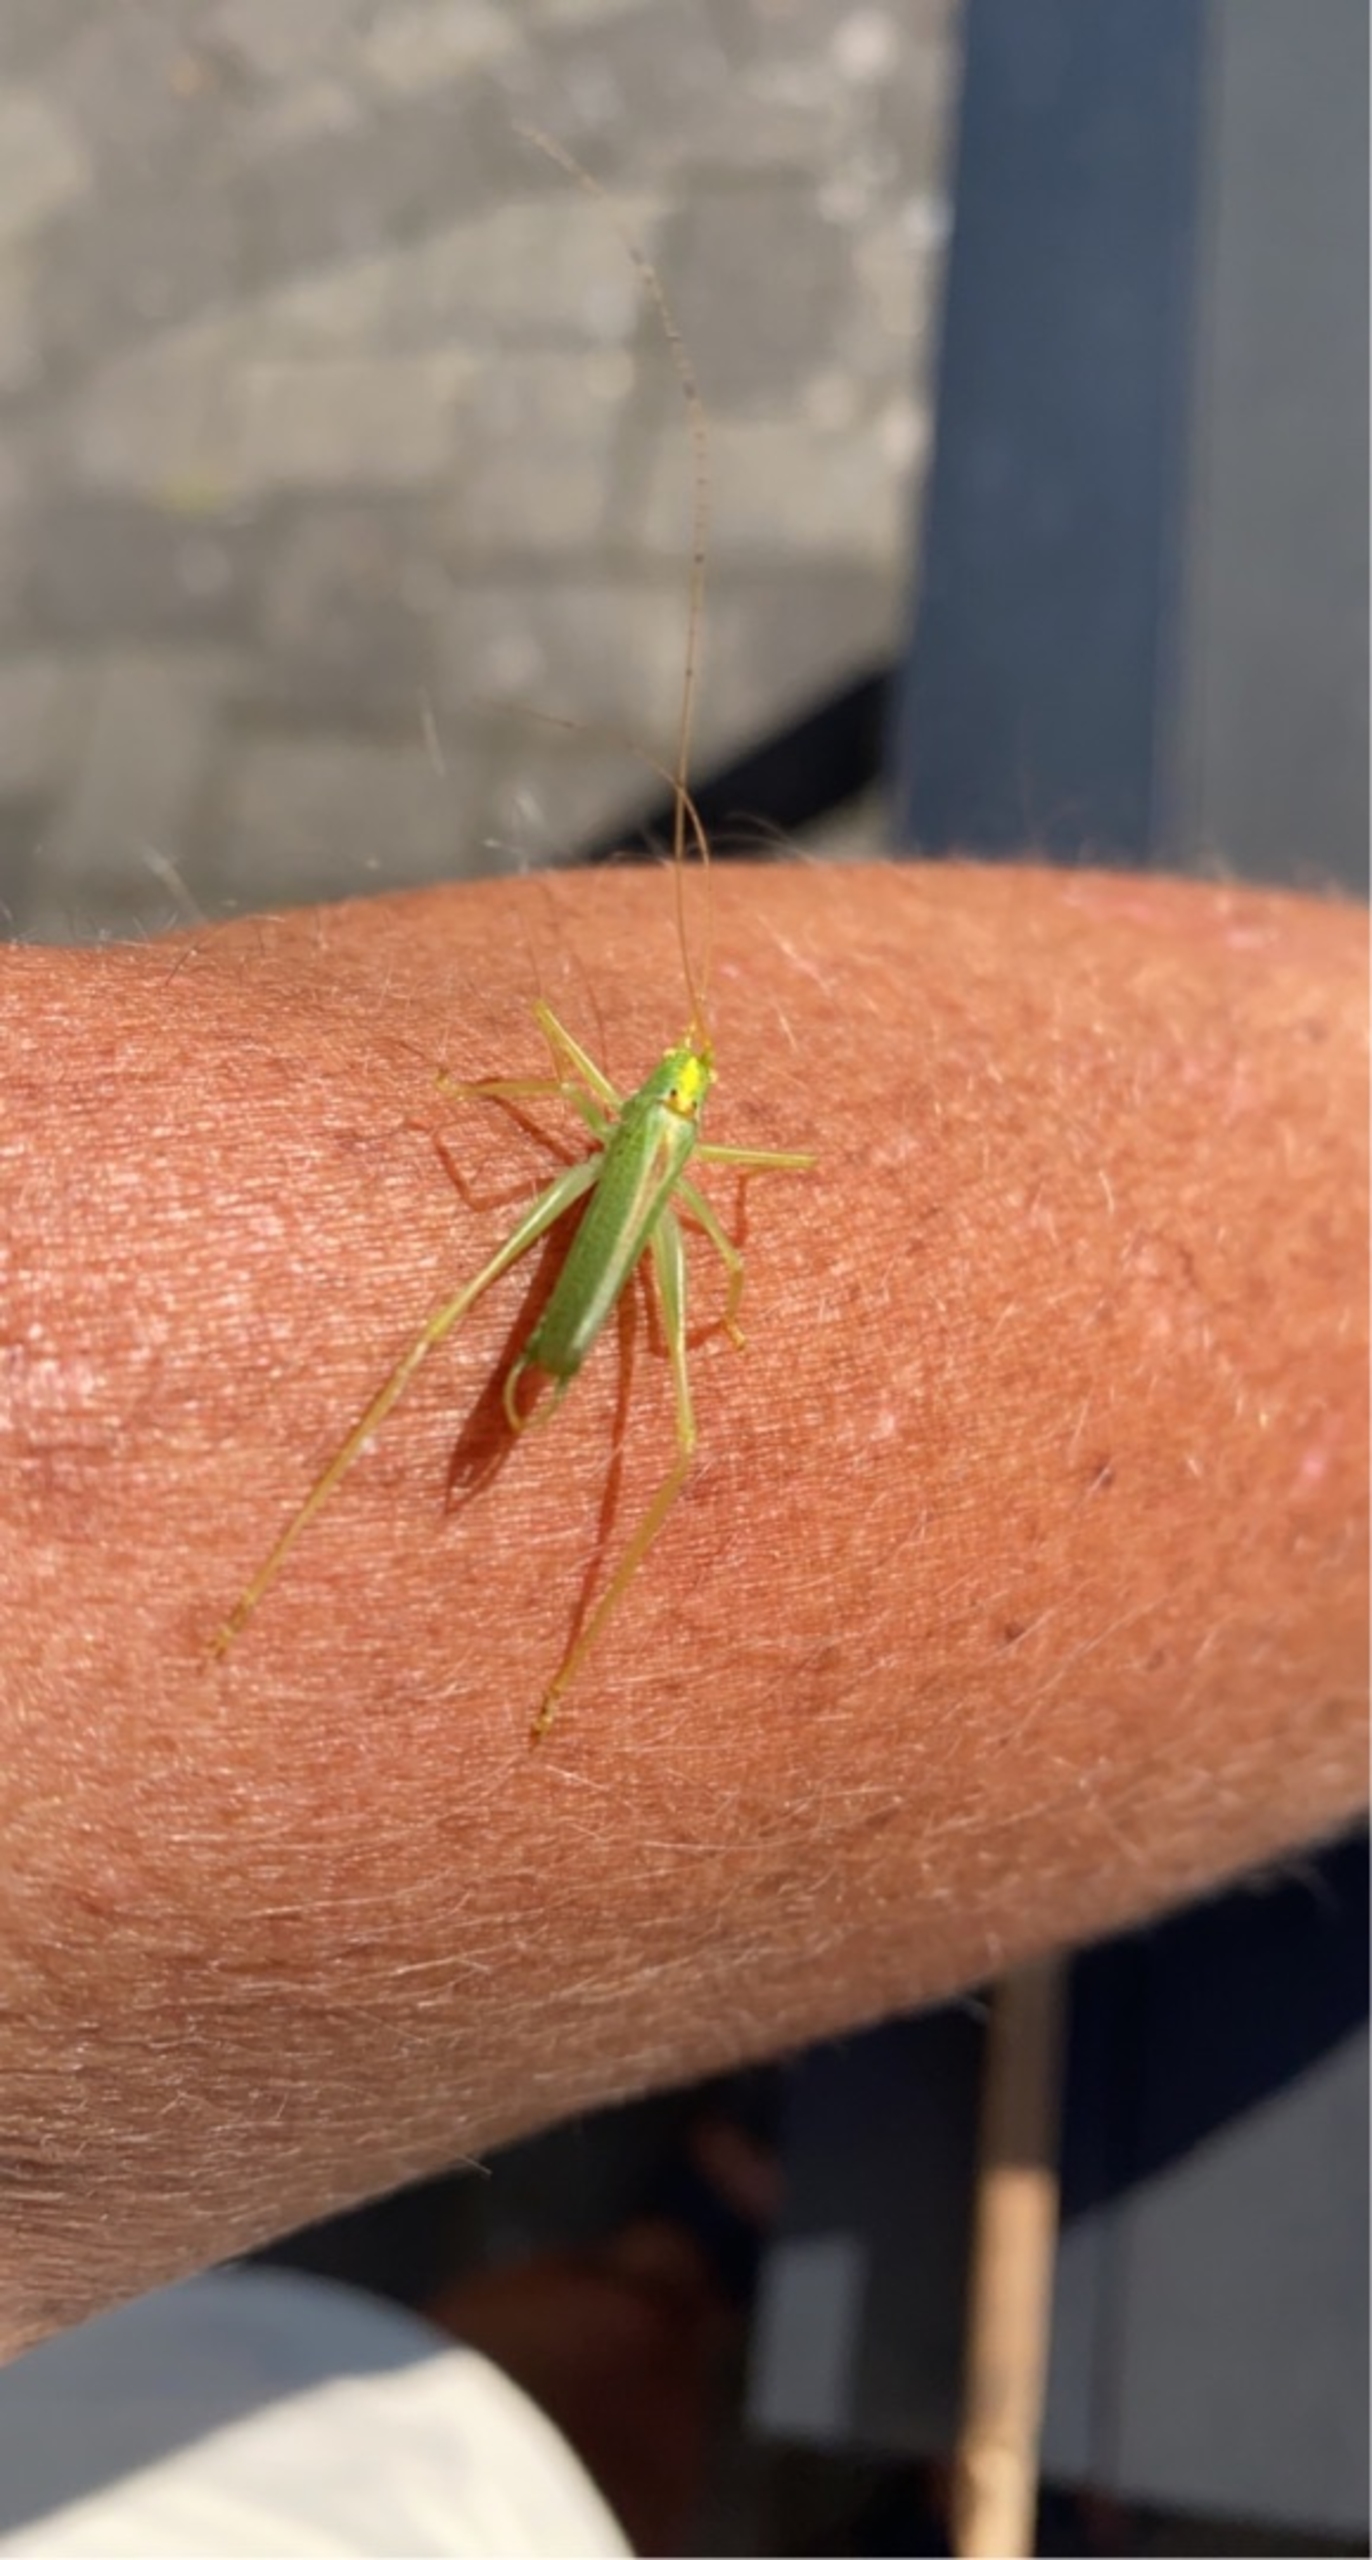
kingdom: Animalia
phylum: Arthropoda
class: Insecta
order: Orthoptera
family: Tettigoniidae
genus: Meconema
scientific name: Meconema thalassinum
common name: Egegræshoppe
